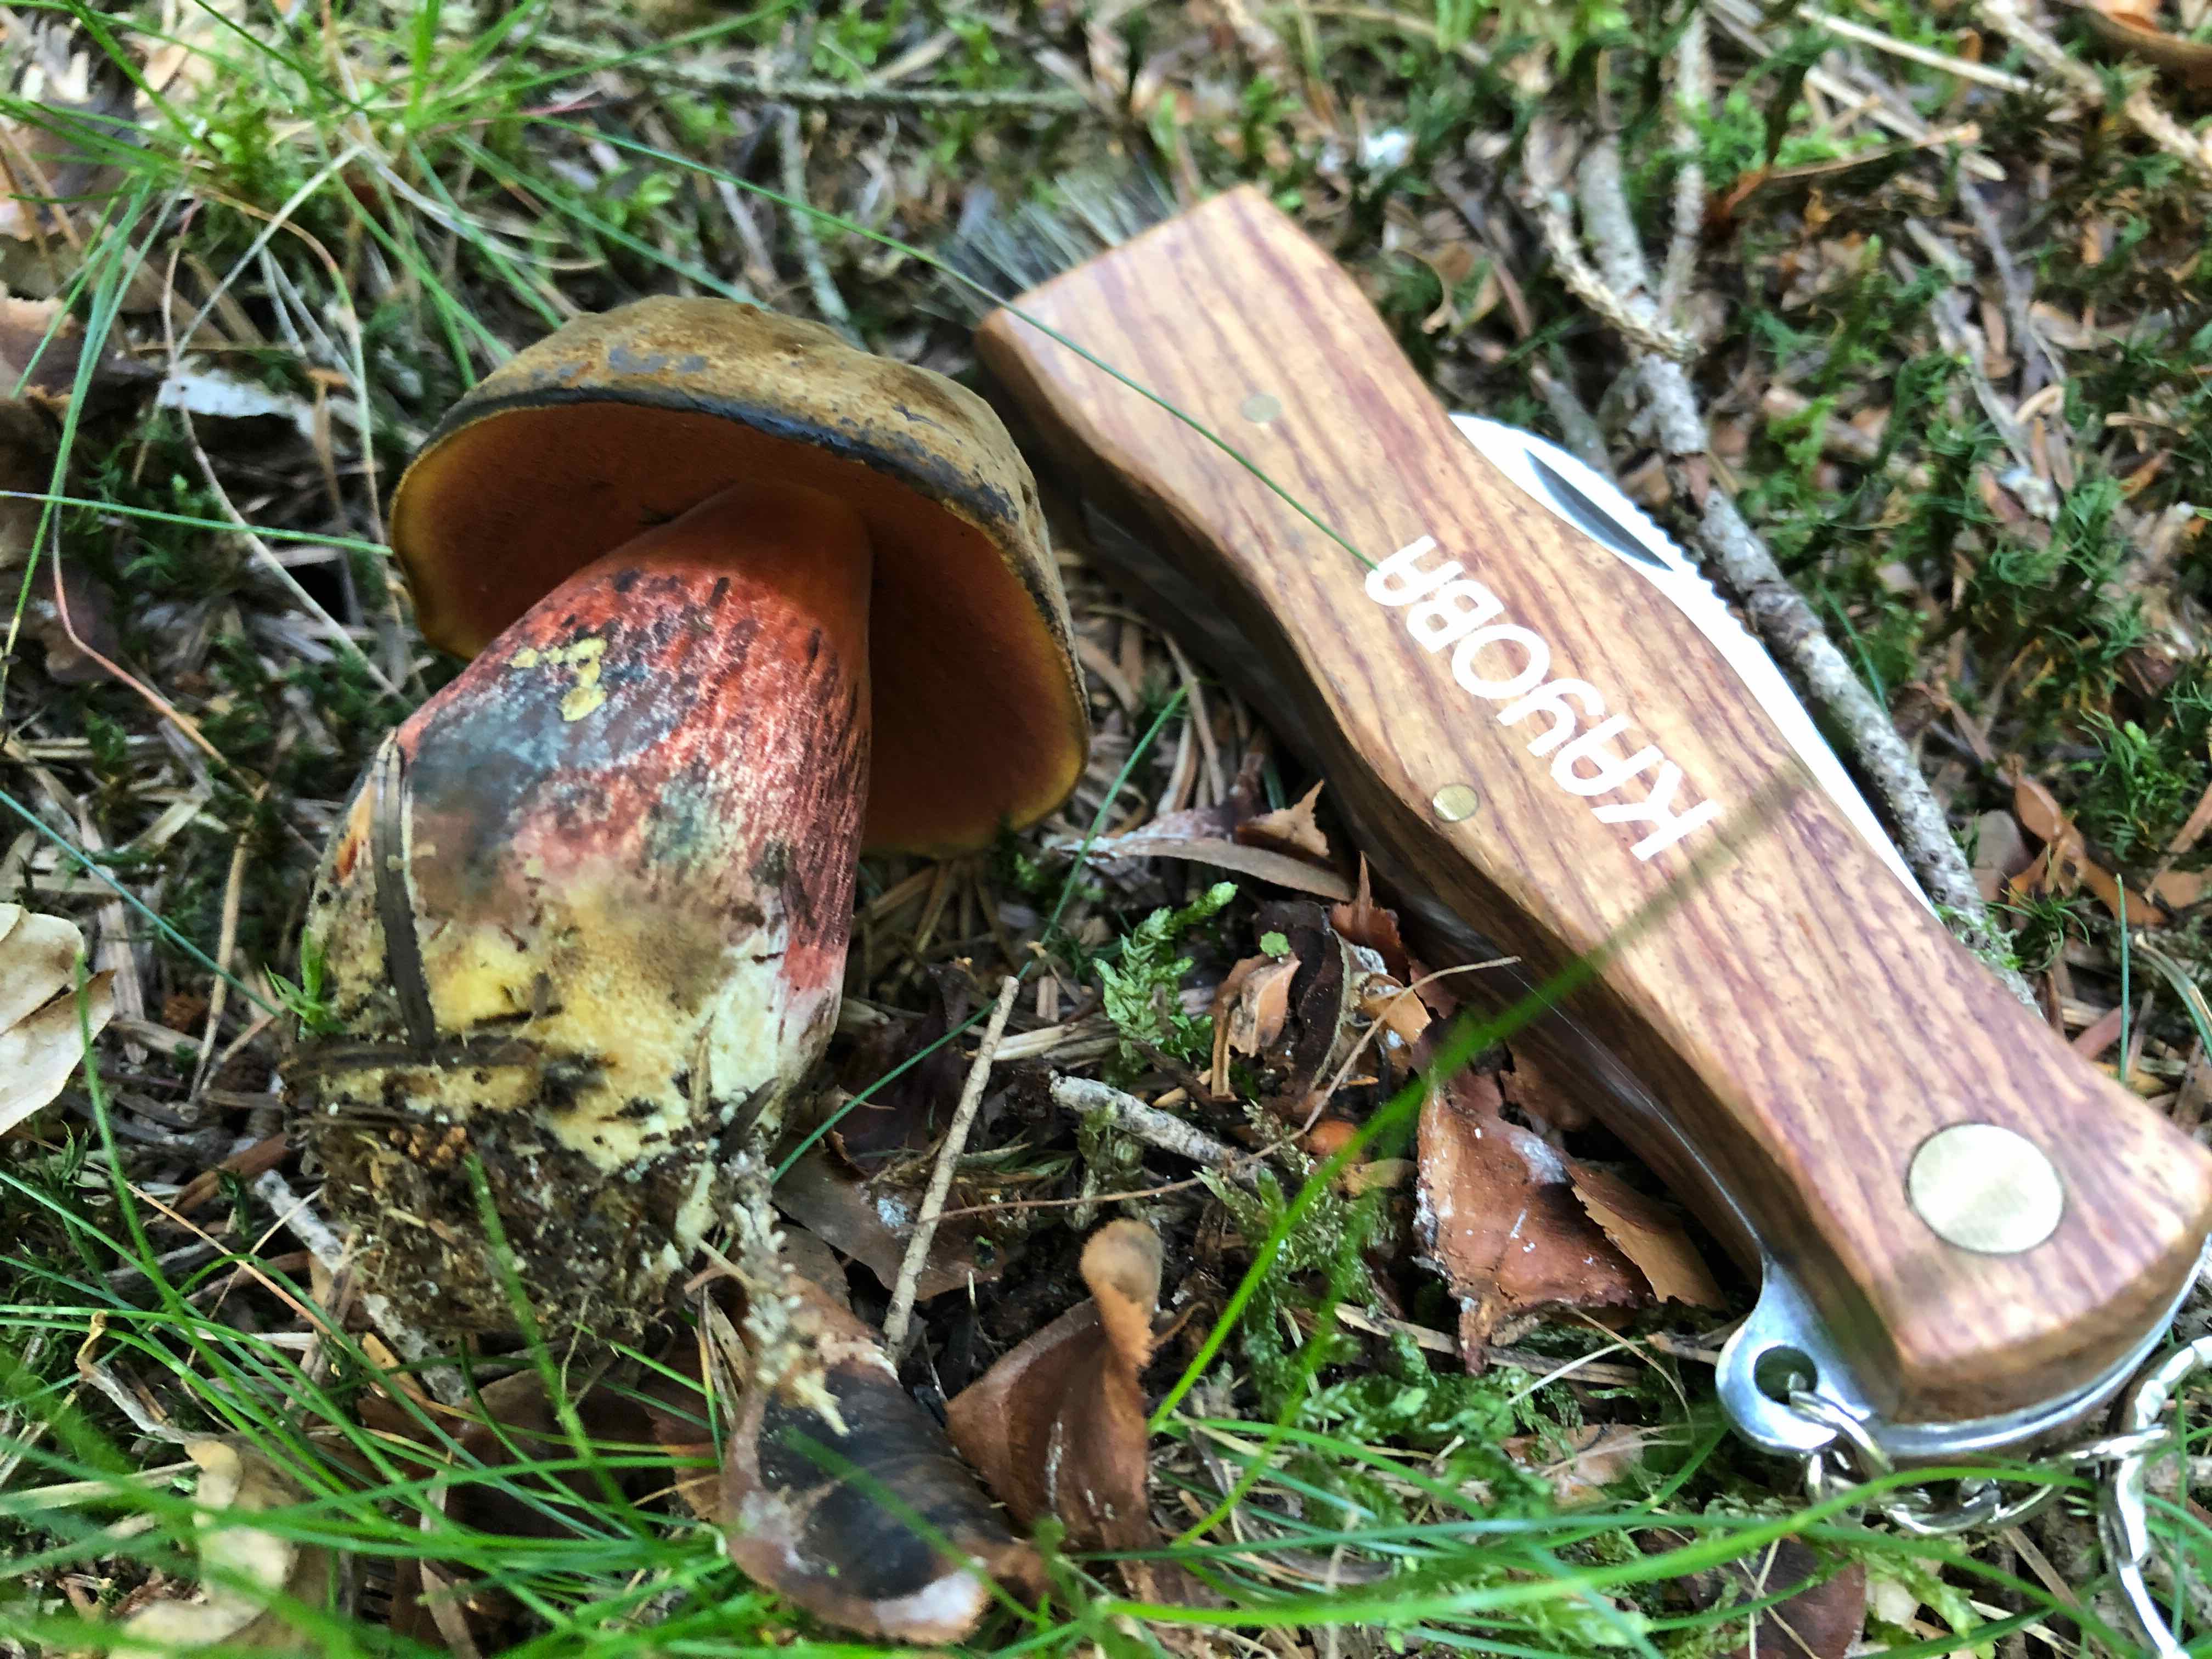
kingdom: Fungi
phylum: Basidiomycota
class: Agaricomycetes
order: Boletales
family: Boletaceae
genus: Neoboletus
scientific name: Neoboletus erythropus
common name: punktstokket indigorørhat
